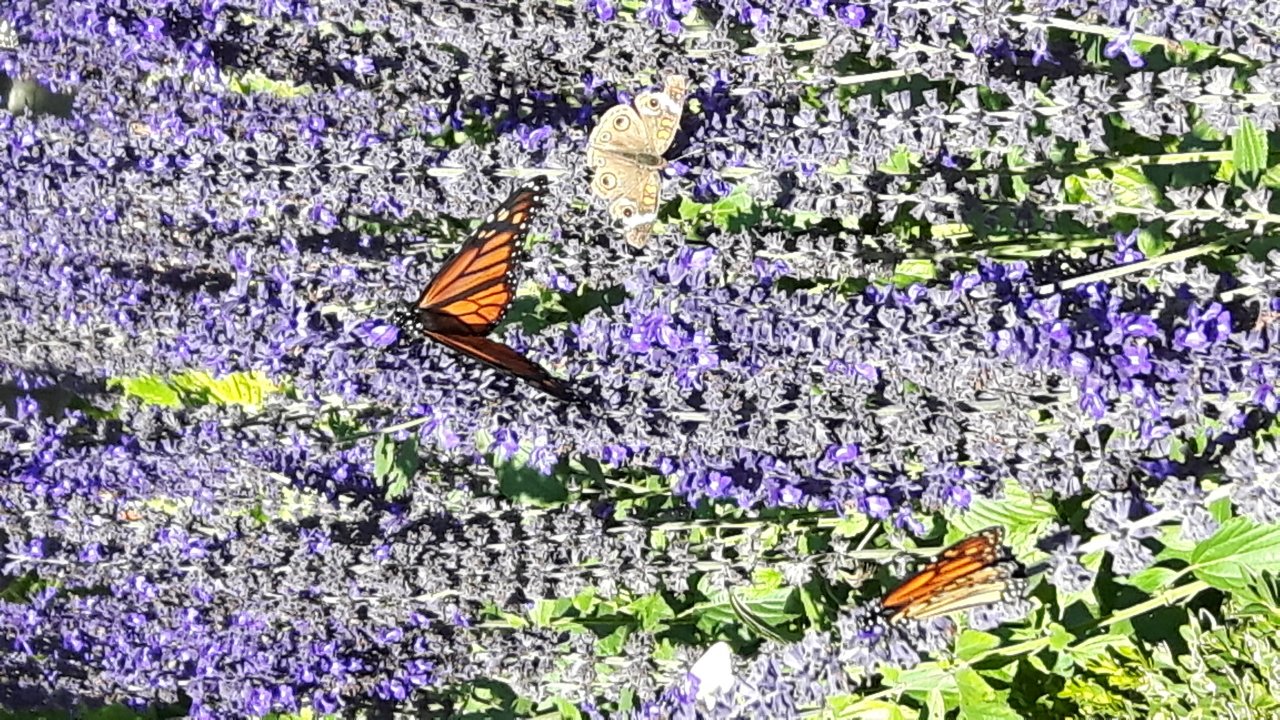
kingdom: Animalia
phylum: Arthropoda
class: Insecta
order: Lepidoptera
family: Nymphalidae
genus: Junonia
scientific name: Junonia coenia
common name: Common Buckeye
